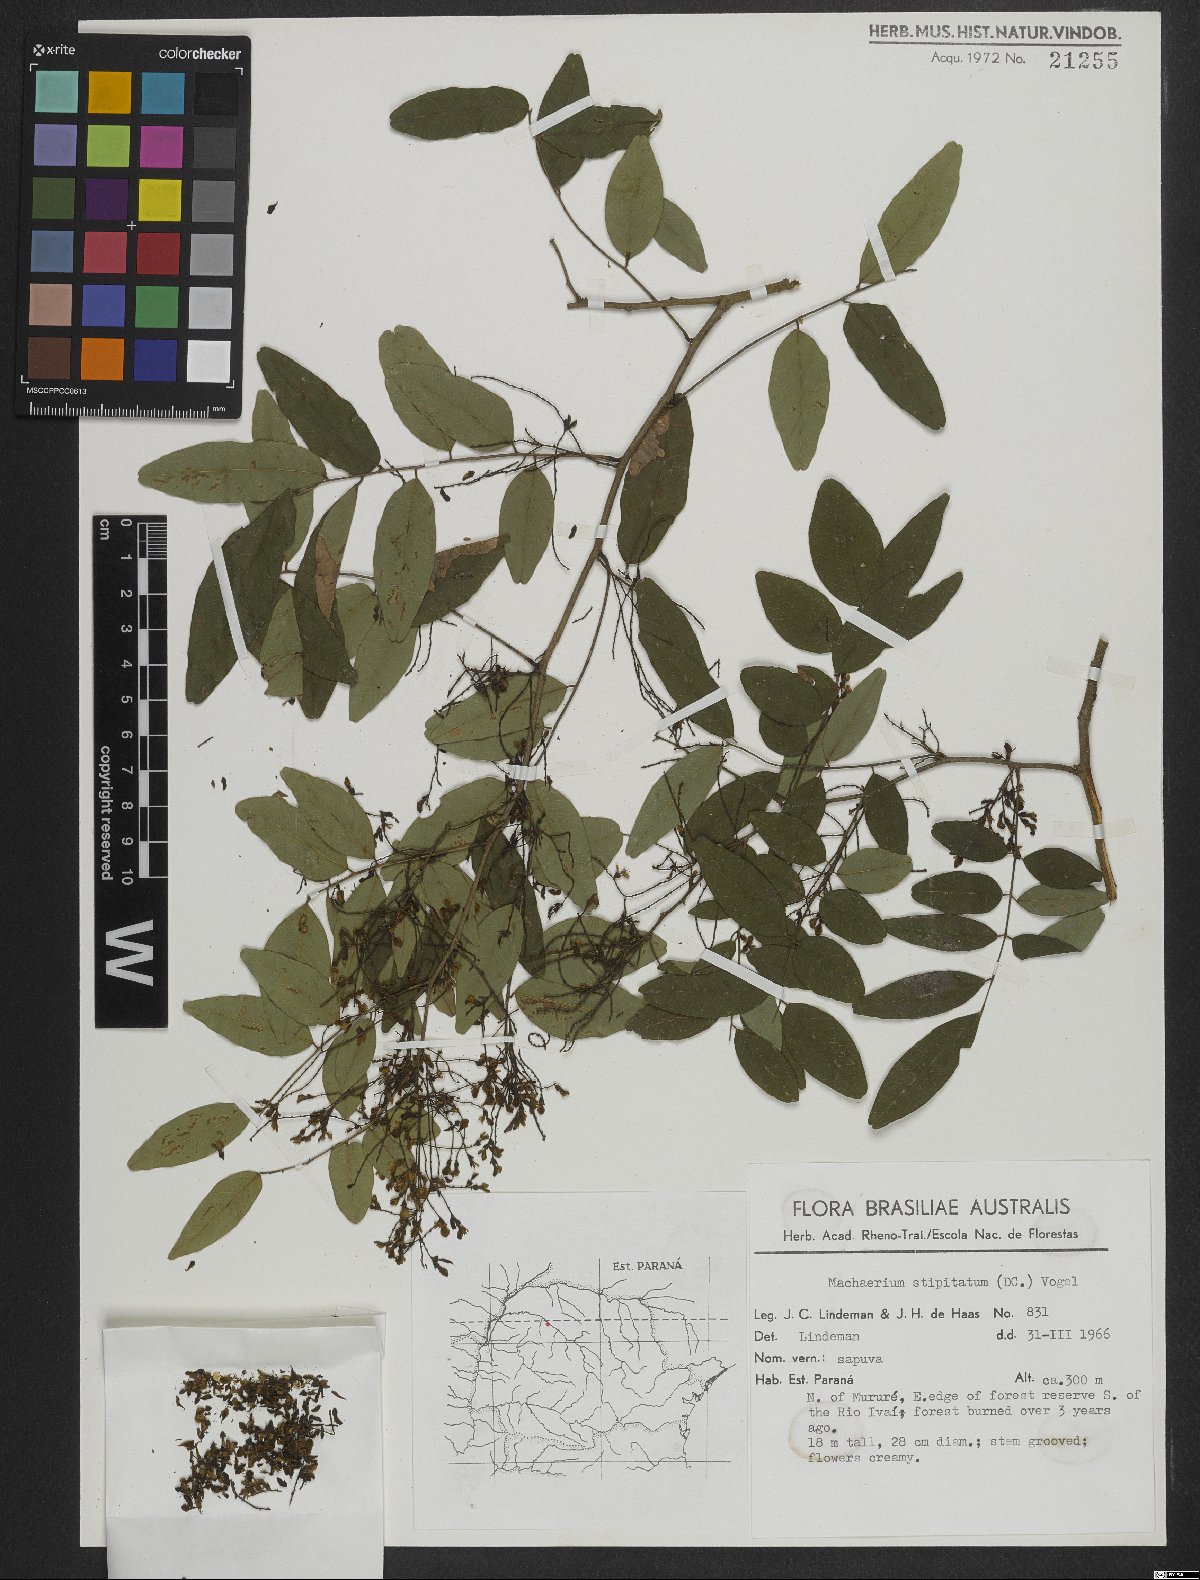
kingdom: Plantae
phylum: Tracheophyta
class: Magnoliopsida
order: Fabales
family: Fabaceae
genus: Machaerium
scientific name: Machaerium stipitatum
